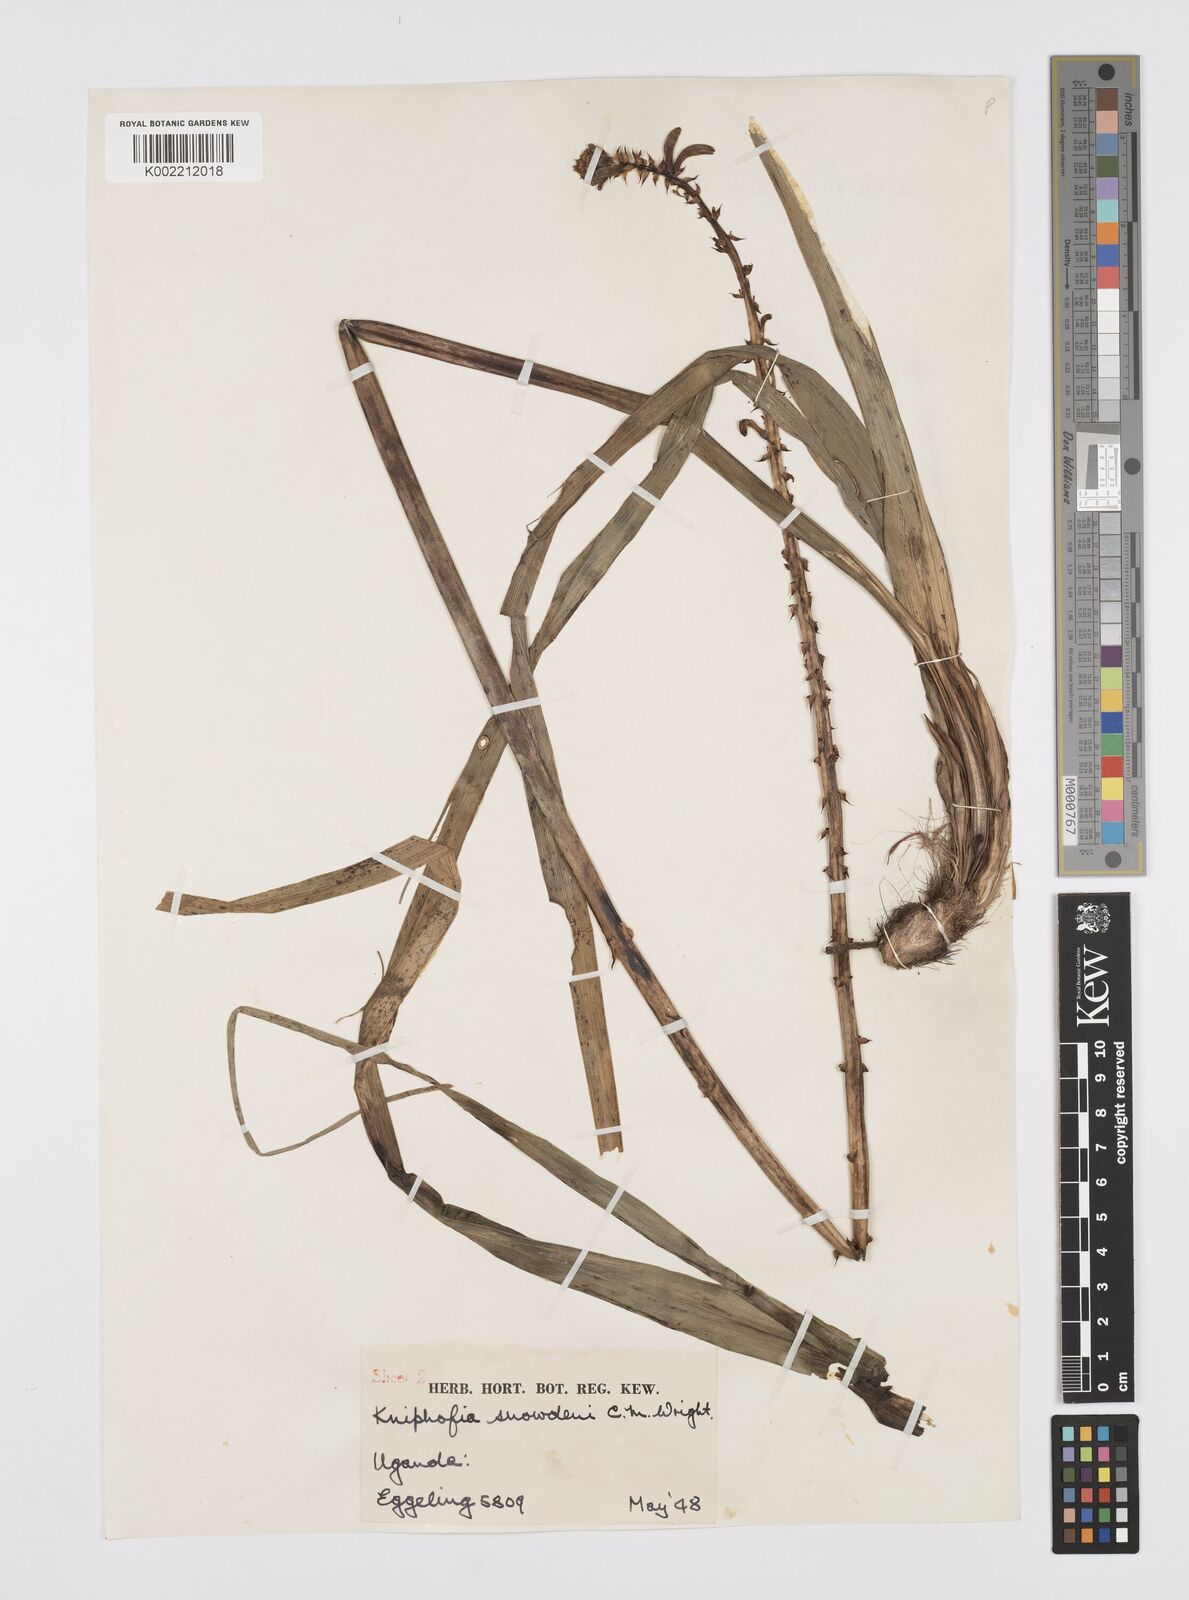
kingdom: Plantae
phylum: Tracheophyta
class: Liliopsida
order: Asparagales
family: Asphodelaceae
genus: Kniphofia
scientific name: Kniphofia thomsonii
